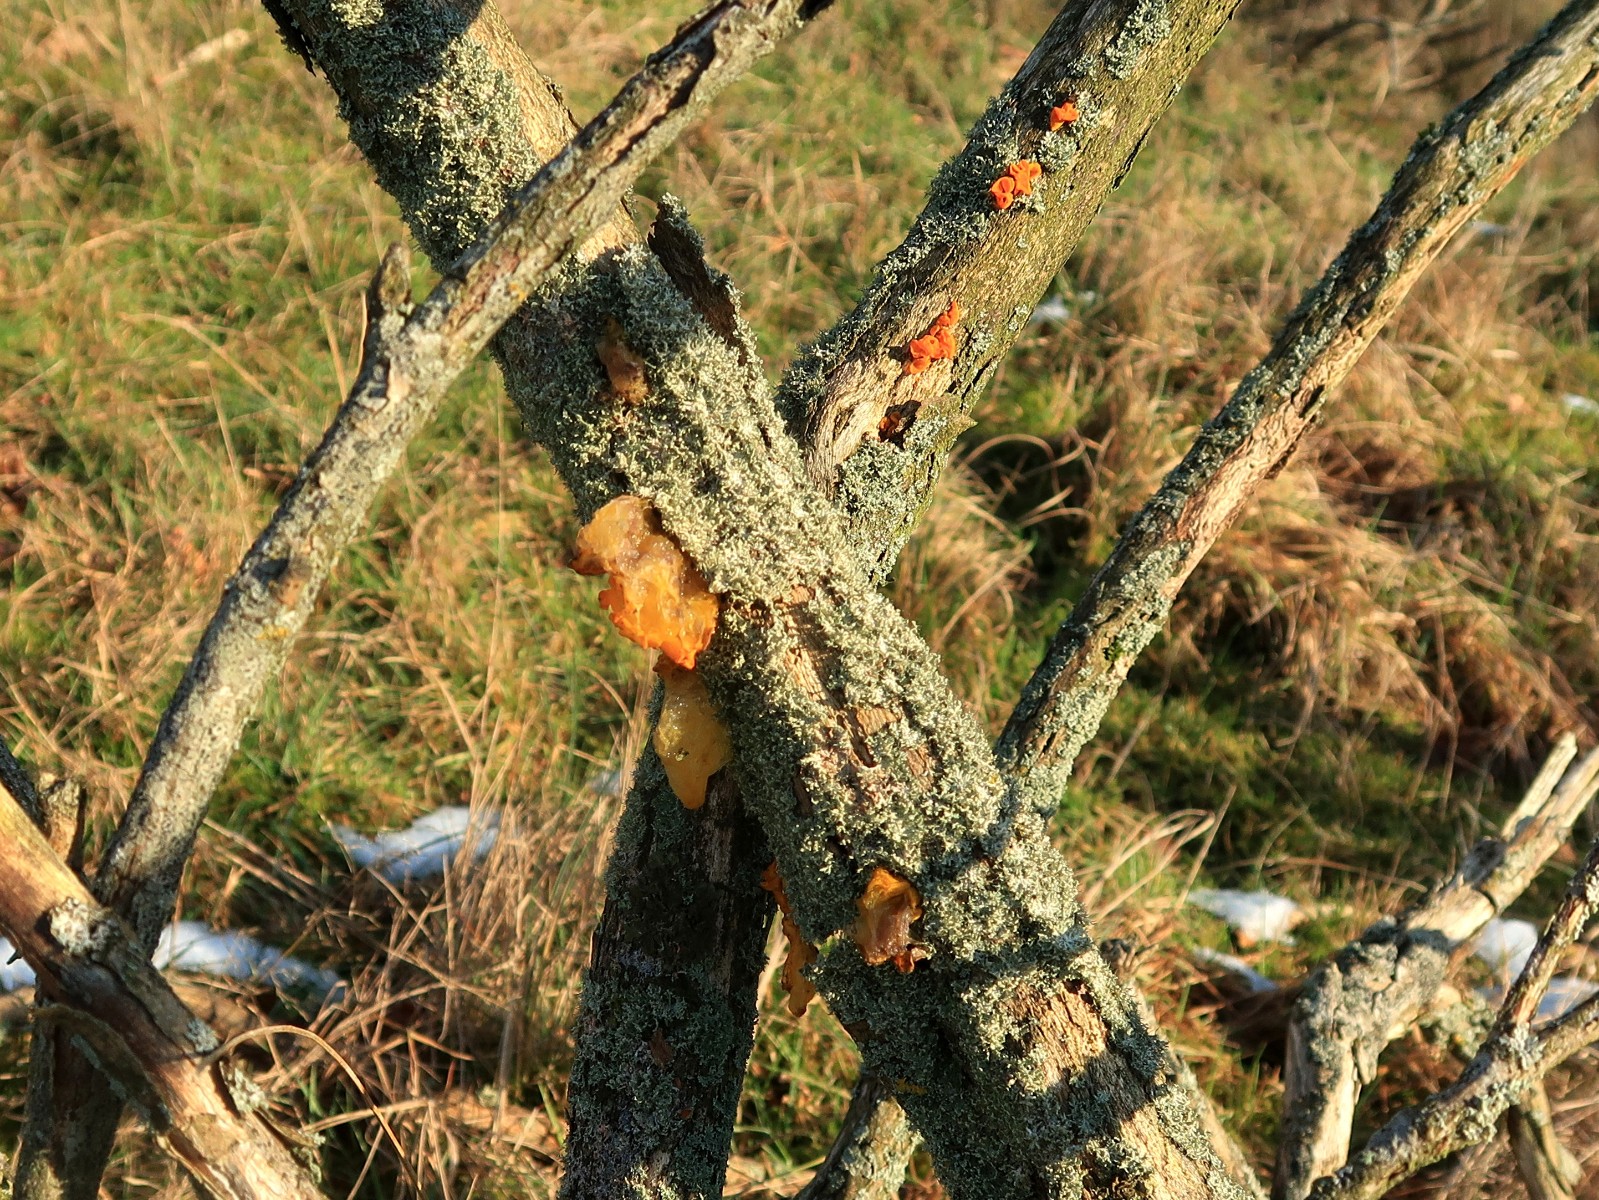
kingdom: Fungi
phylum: Basidiomycota
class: Tremellomycetes
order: Tremellales
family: Tremellaceae
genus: Tremella
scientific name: Tremella mesenterica
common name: gul bævresvamp
